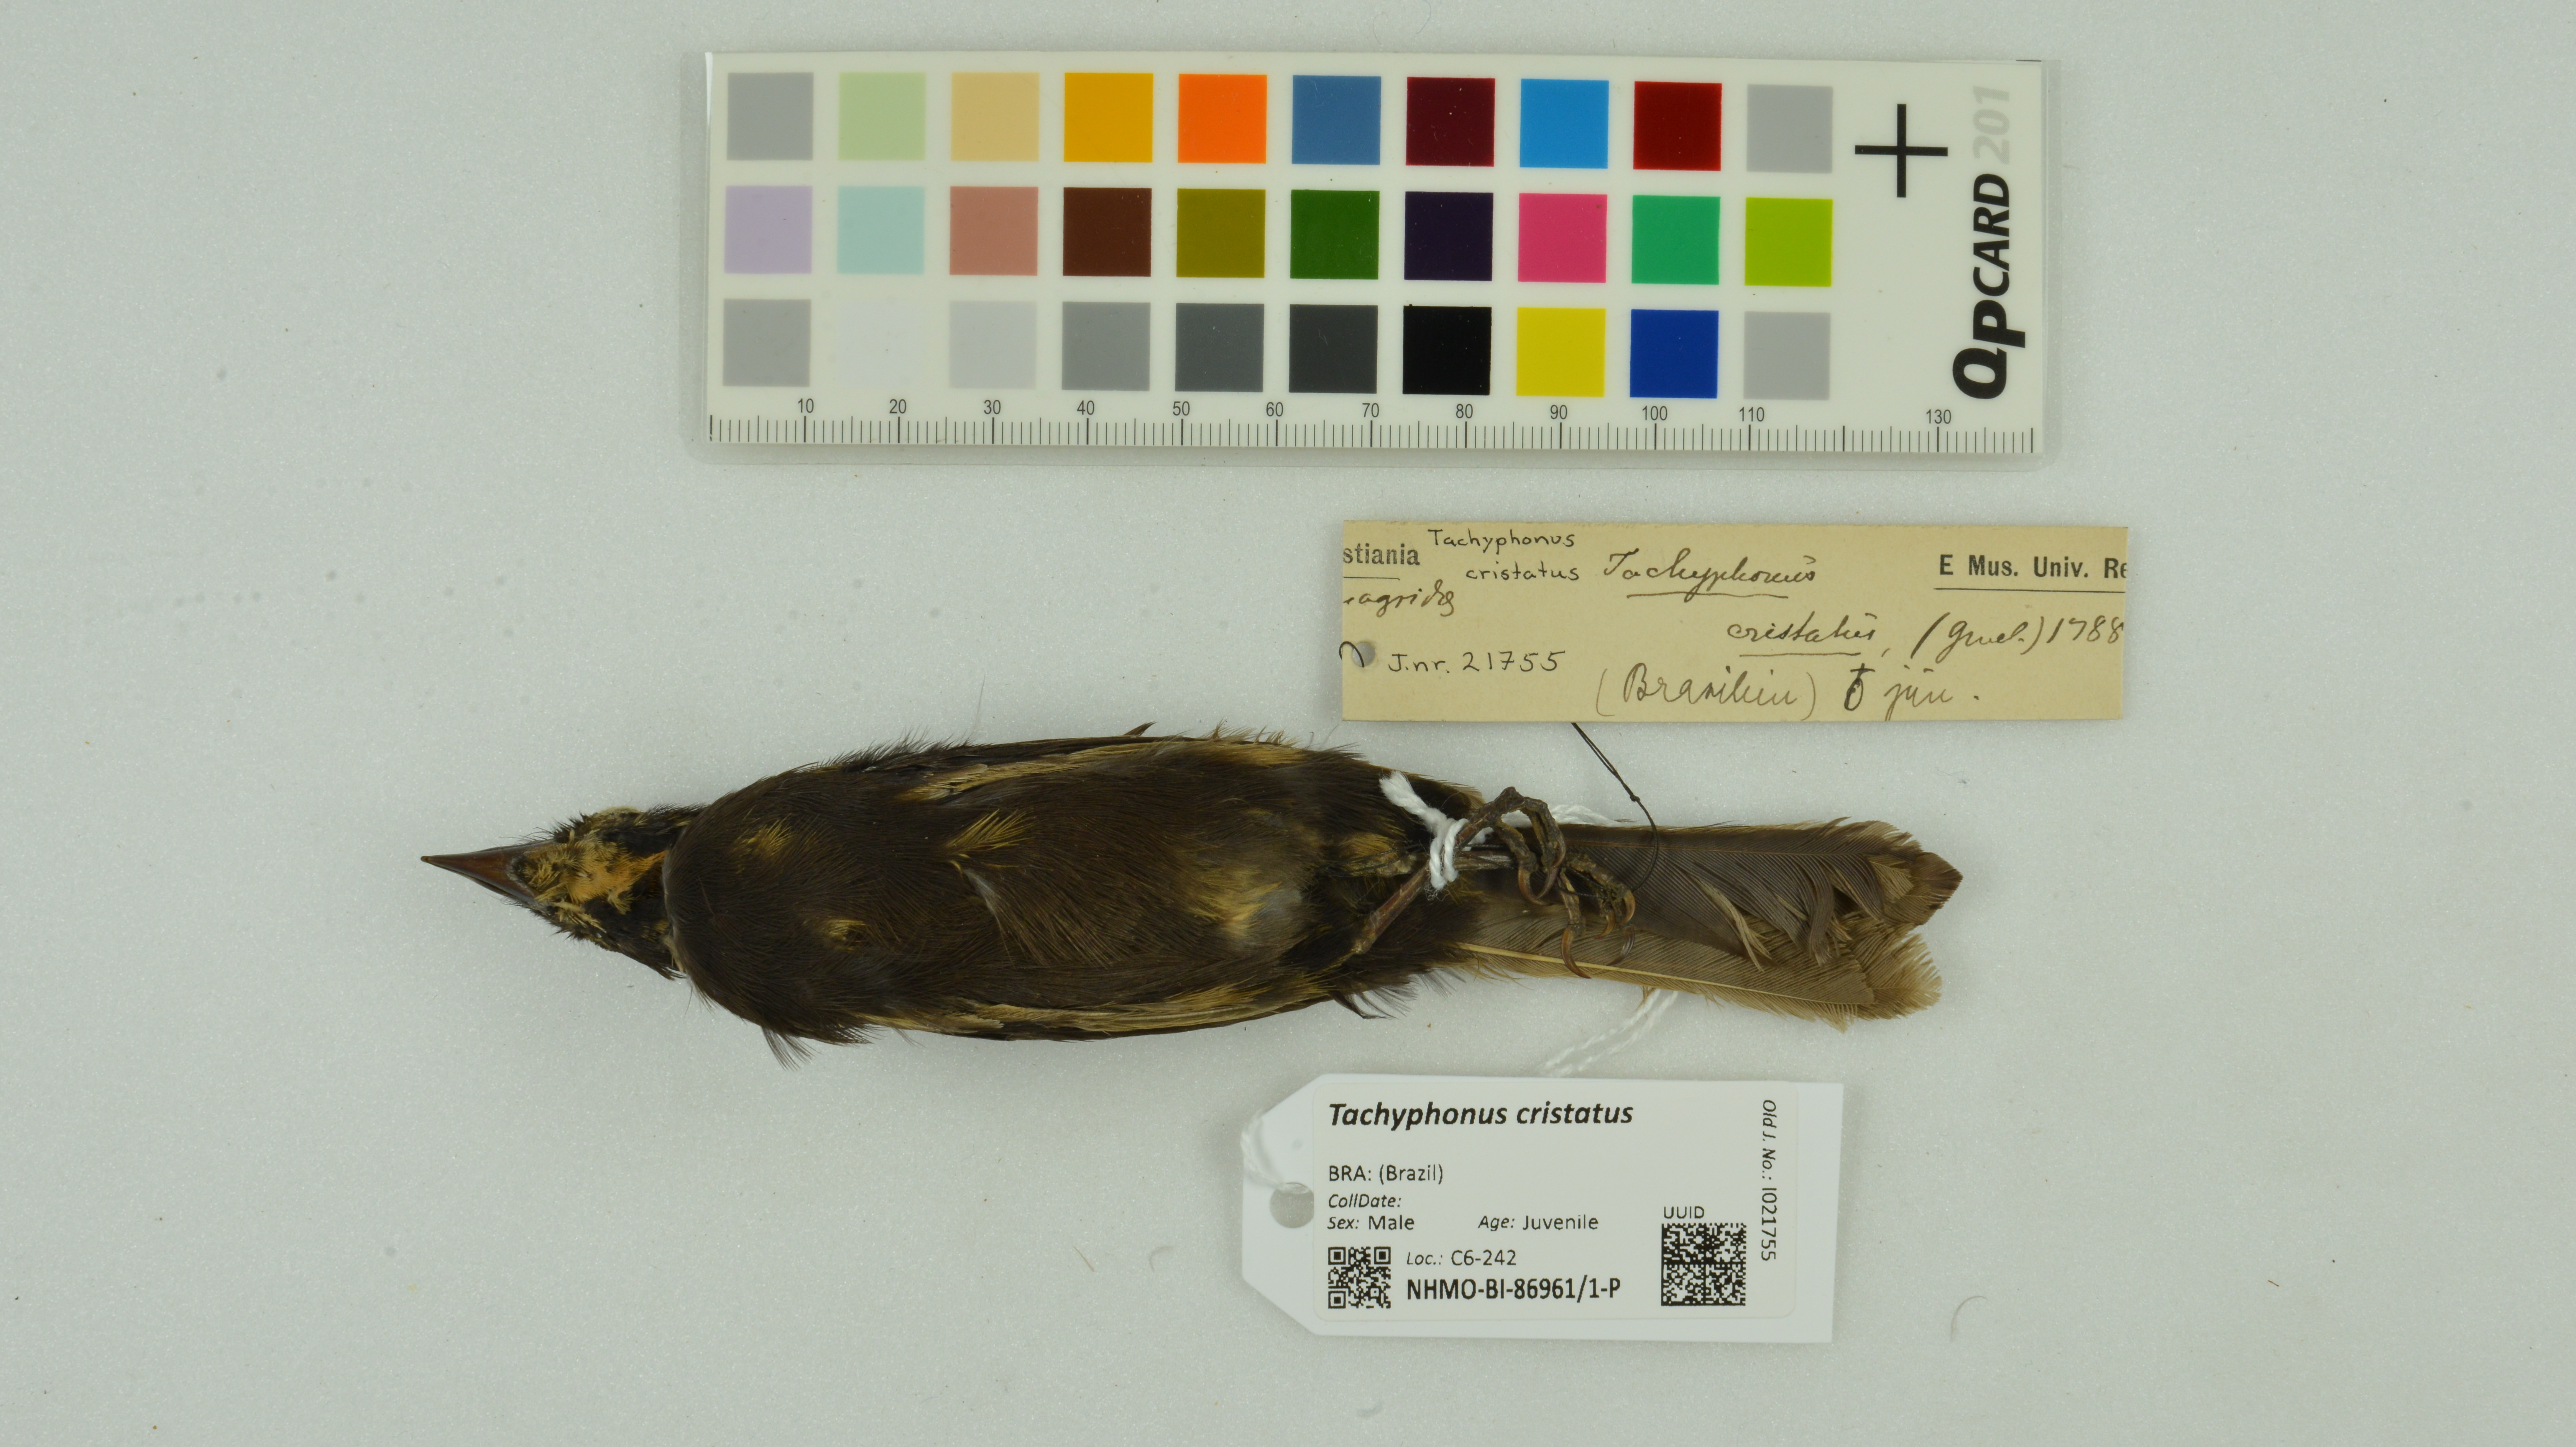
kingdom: Animalia
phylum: Chordata
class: Aves
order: Passeriformes
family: Thraupidae
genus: Loriotus
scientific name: Loriotus cristatus
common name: Flame-crested tanager
